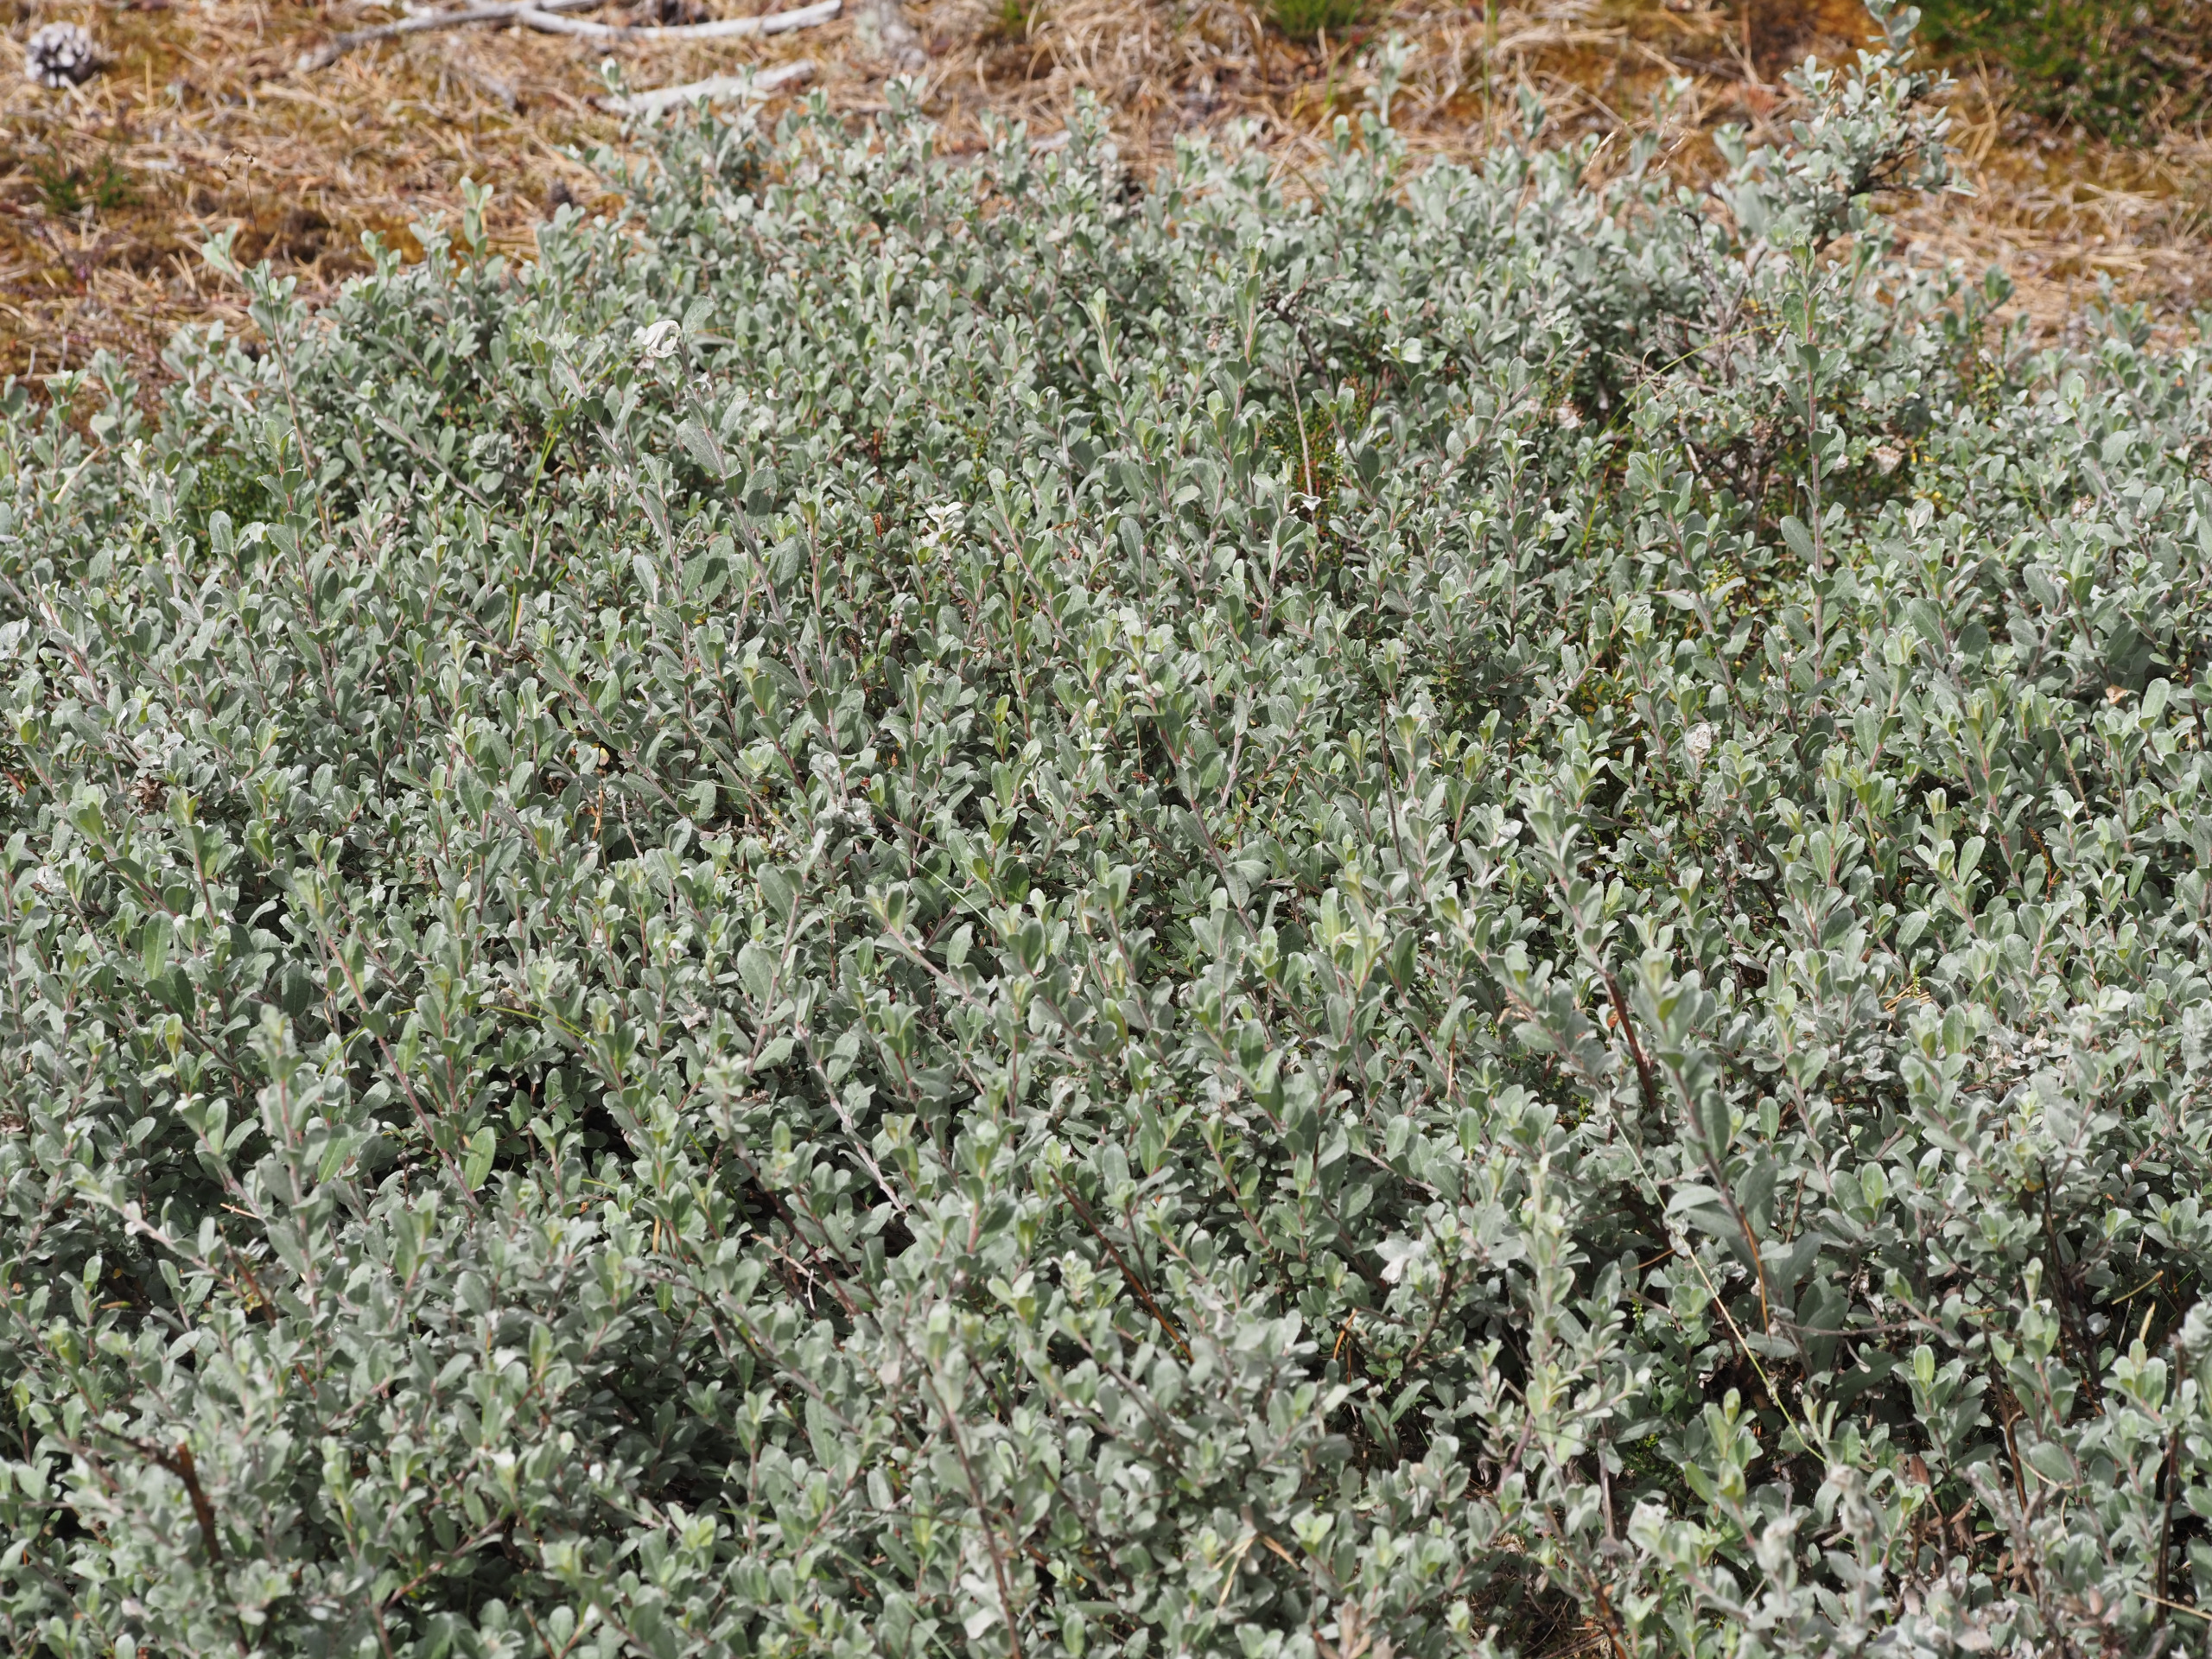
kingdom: Plantae
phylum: Tracheophyta
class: Magnoliopsida
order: Malpighiales
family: Salicaceae
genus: Salix
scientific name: Salix repens
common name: Gråris
